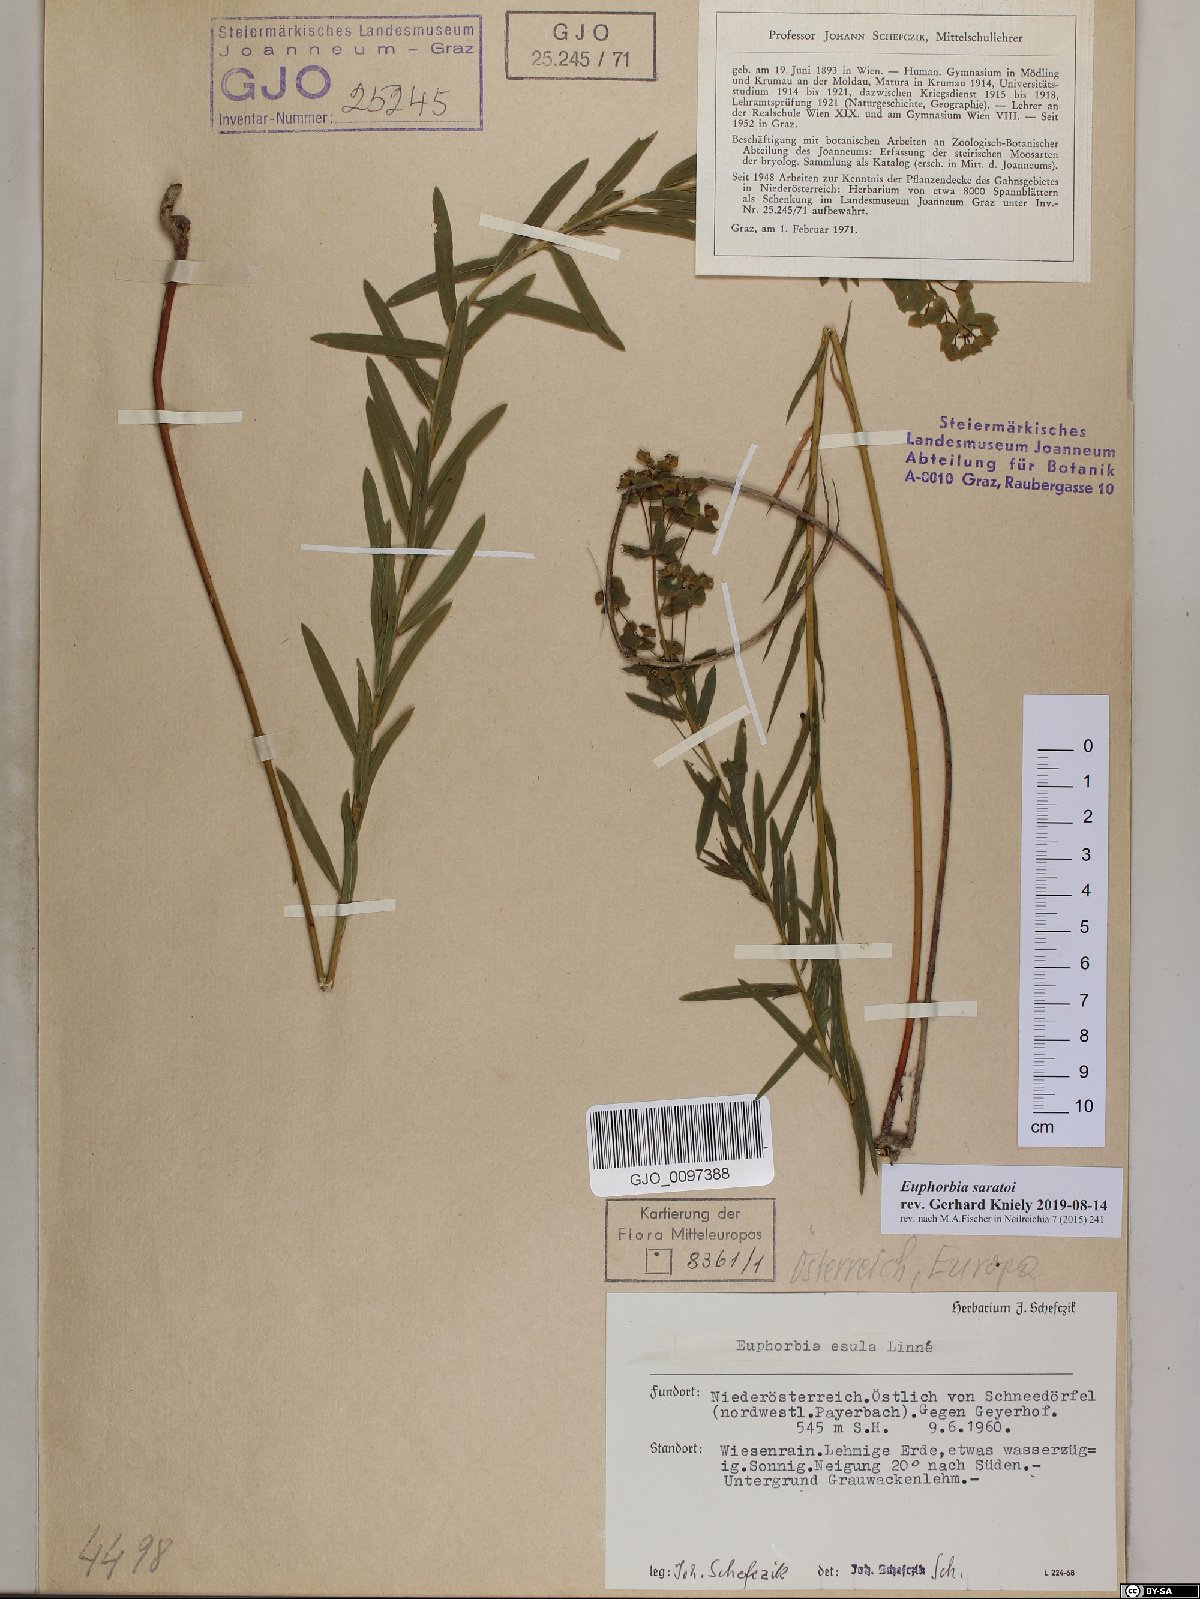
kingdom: Plantae
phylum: Tracheophyta
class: Magnoliopsida
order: Malpighiales
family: Euphorbiaceae
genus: Euphorbia
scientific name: Euphorbia saratoi
